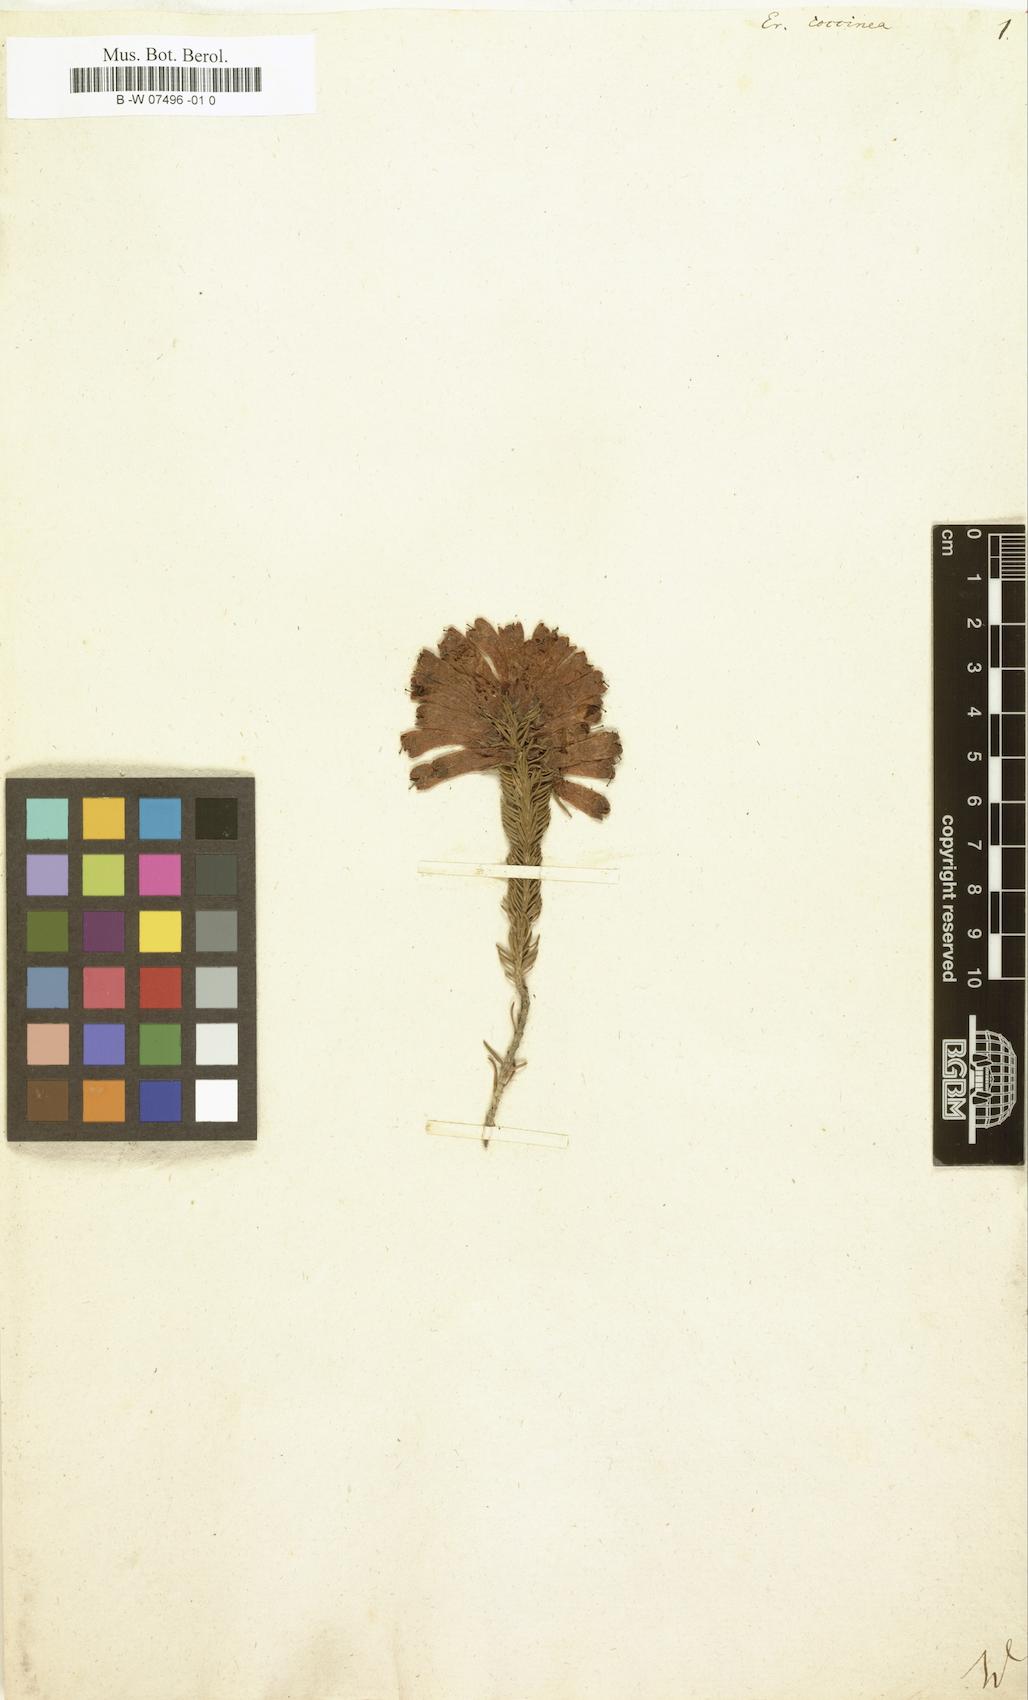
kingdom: Plantae
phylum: Tracheophyta
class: Magnoliopsida
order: Ericales
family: Ericaceae
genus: Erica
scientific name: Erica coccinea
